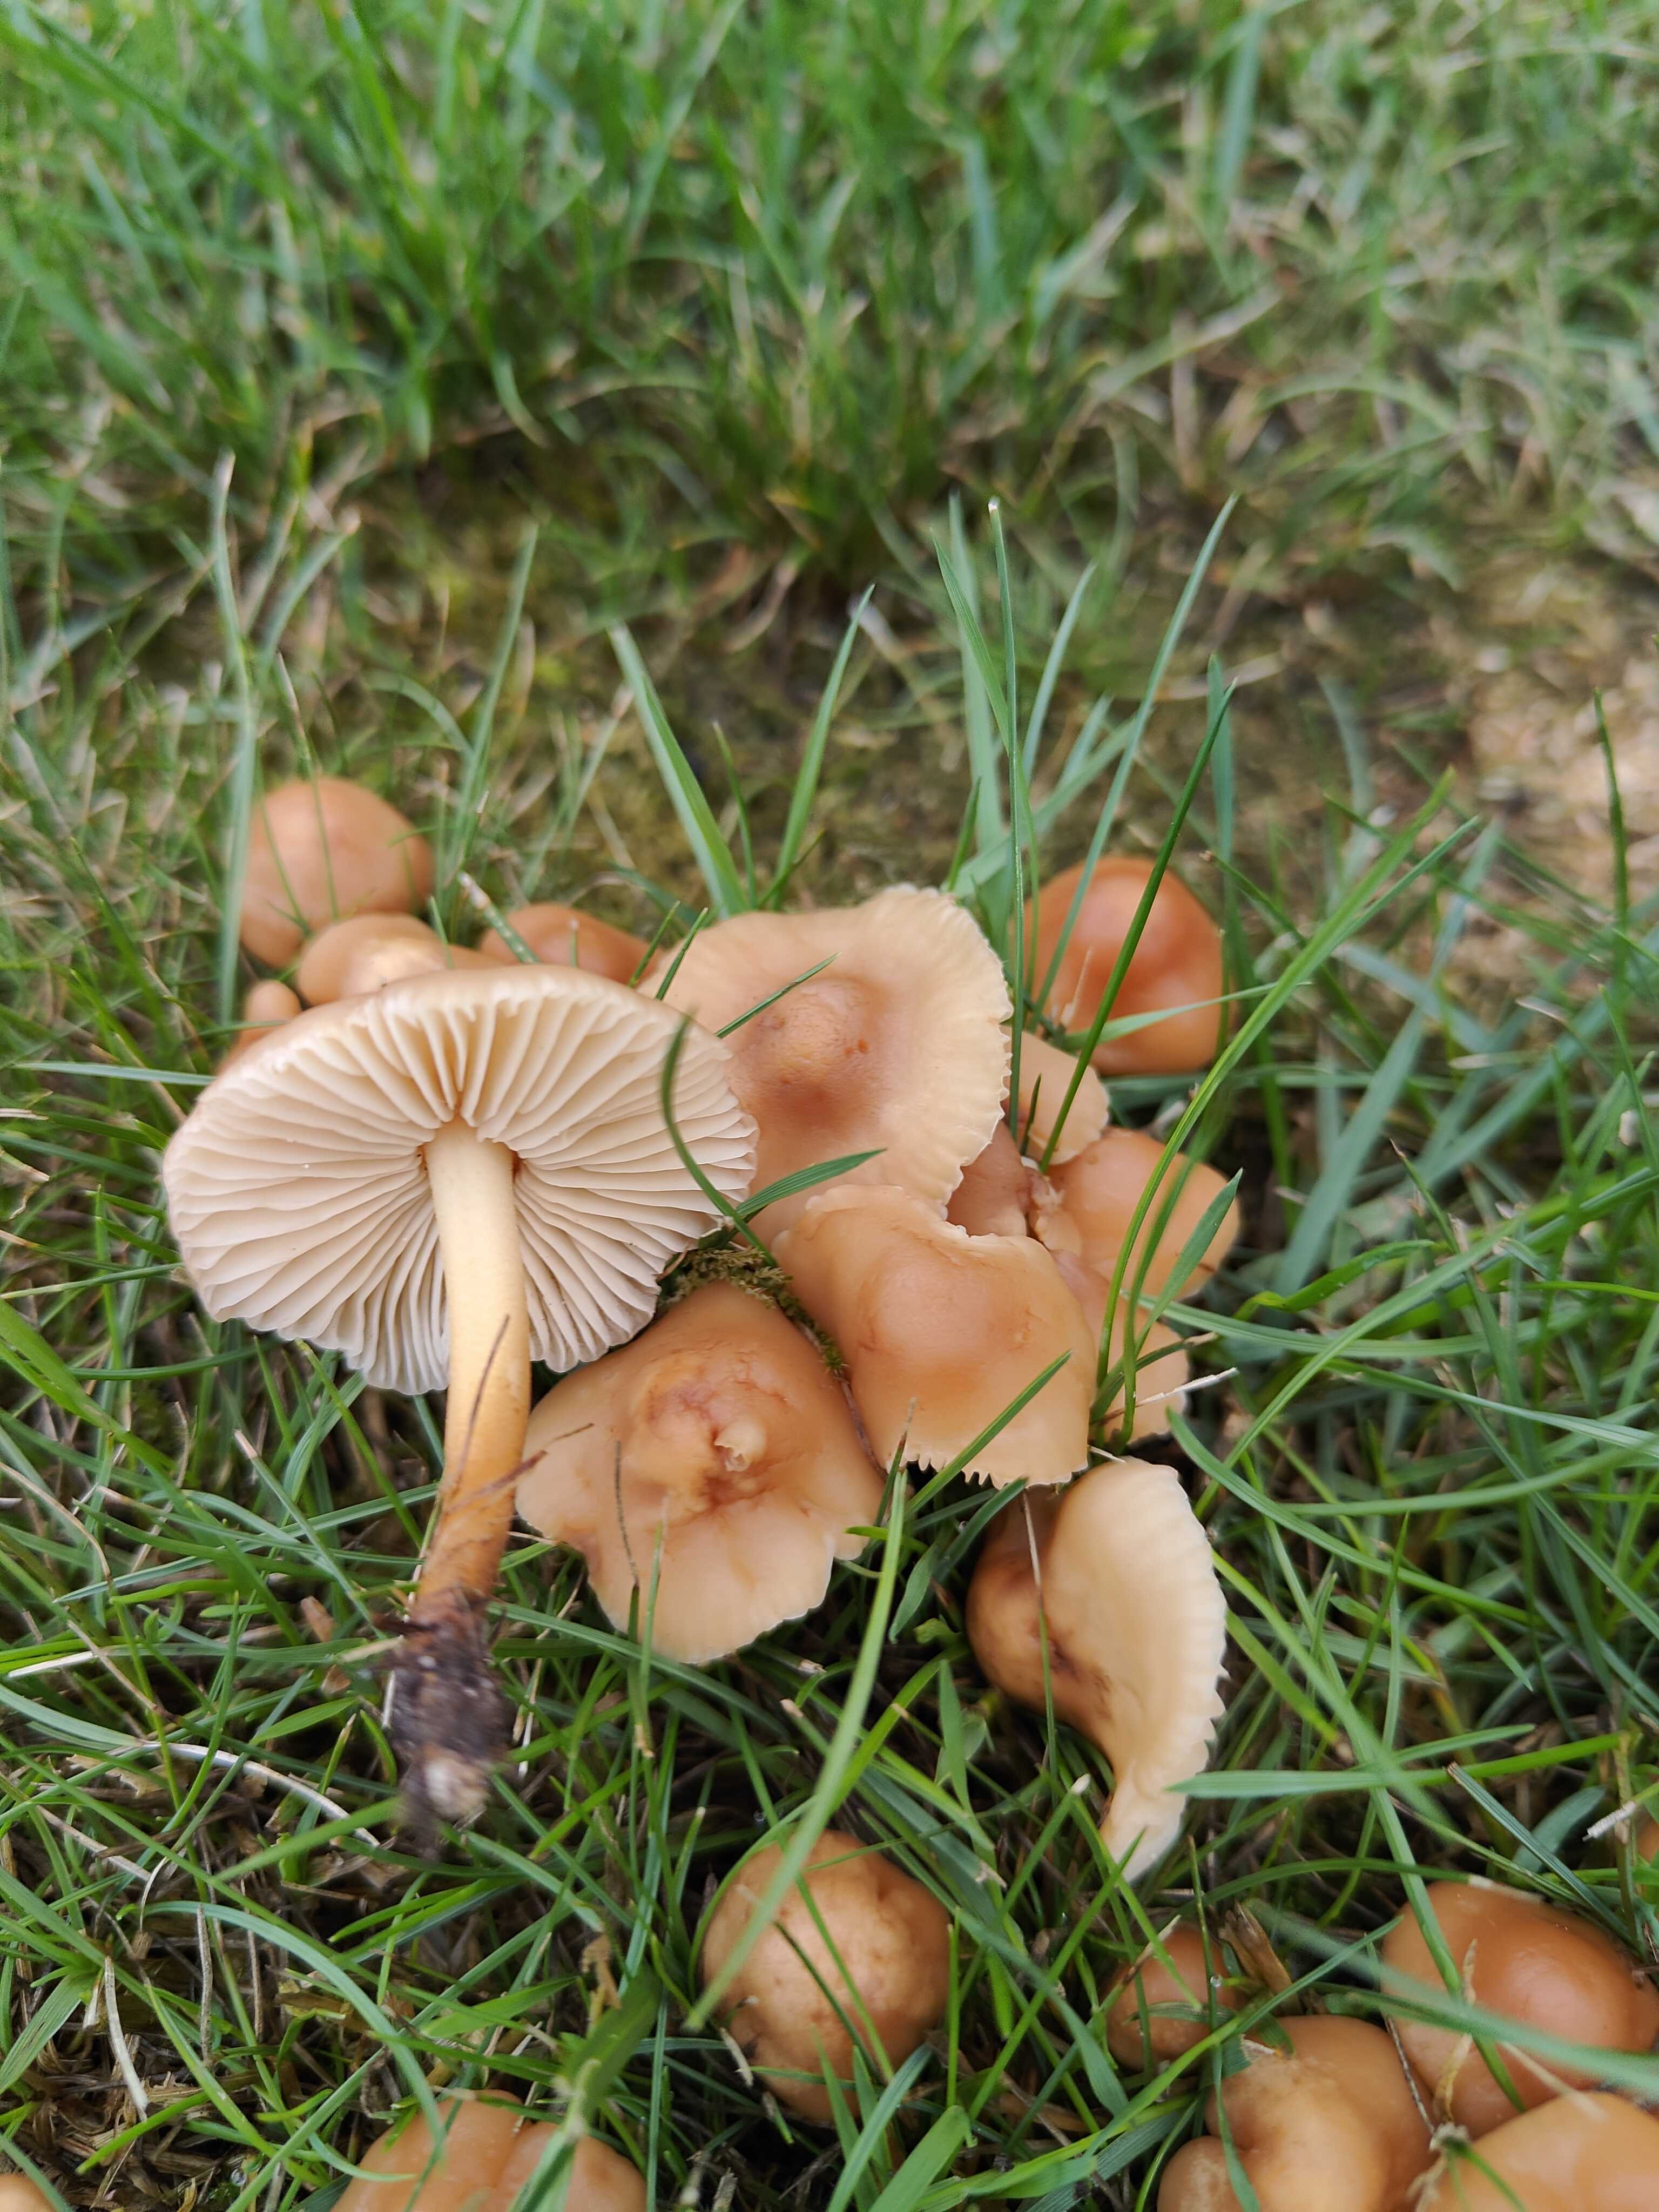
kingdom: Fungi
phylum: Basidiomycota
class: Agaricomycetes
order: Agaricales
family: Marasmiaceae
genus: Marasmius
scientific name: Marasmius oreades
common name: elledans-bruskhat
